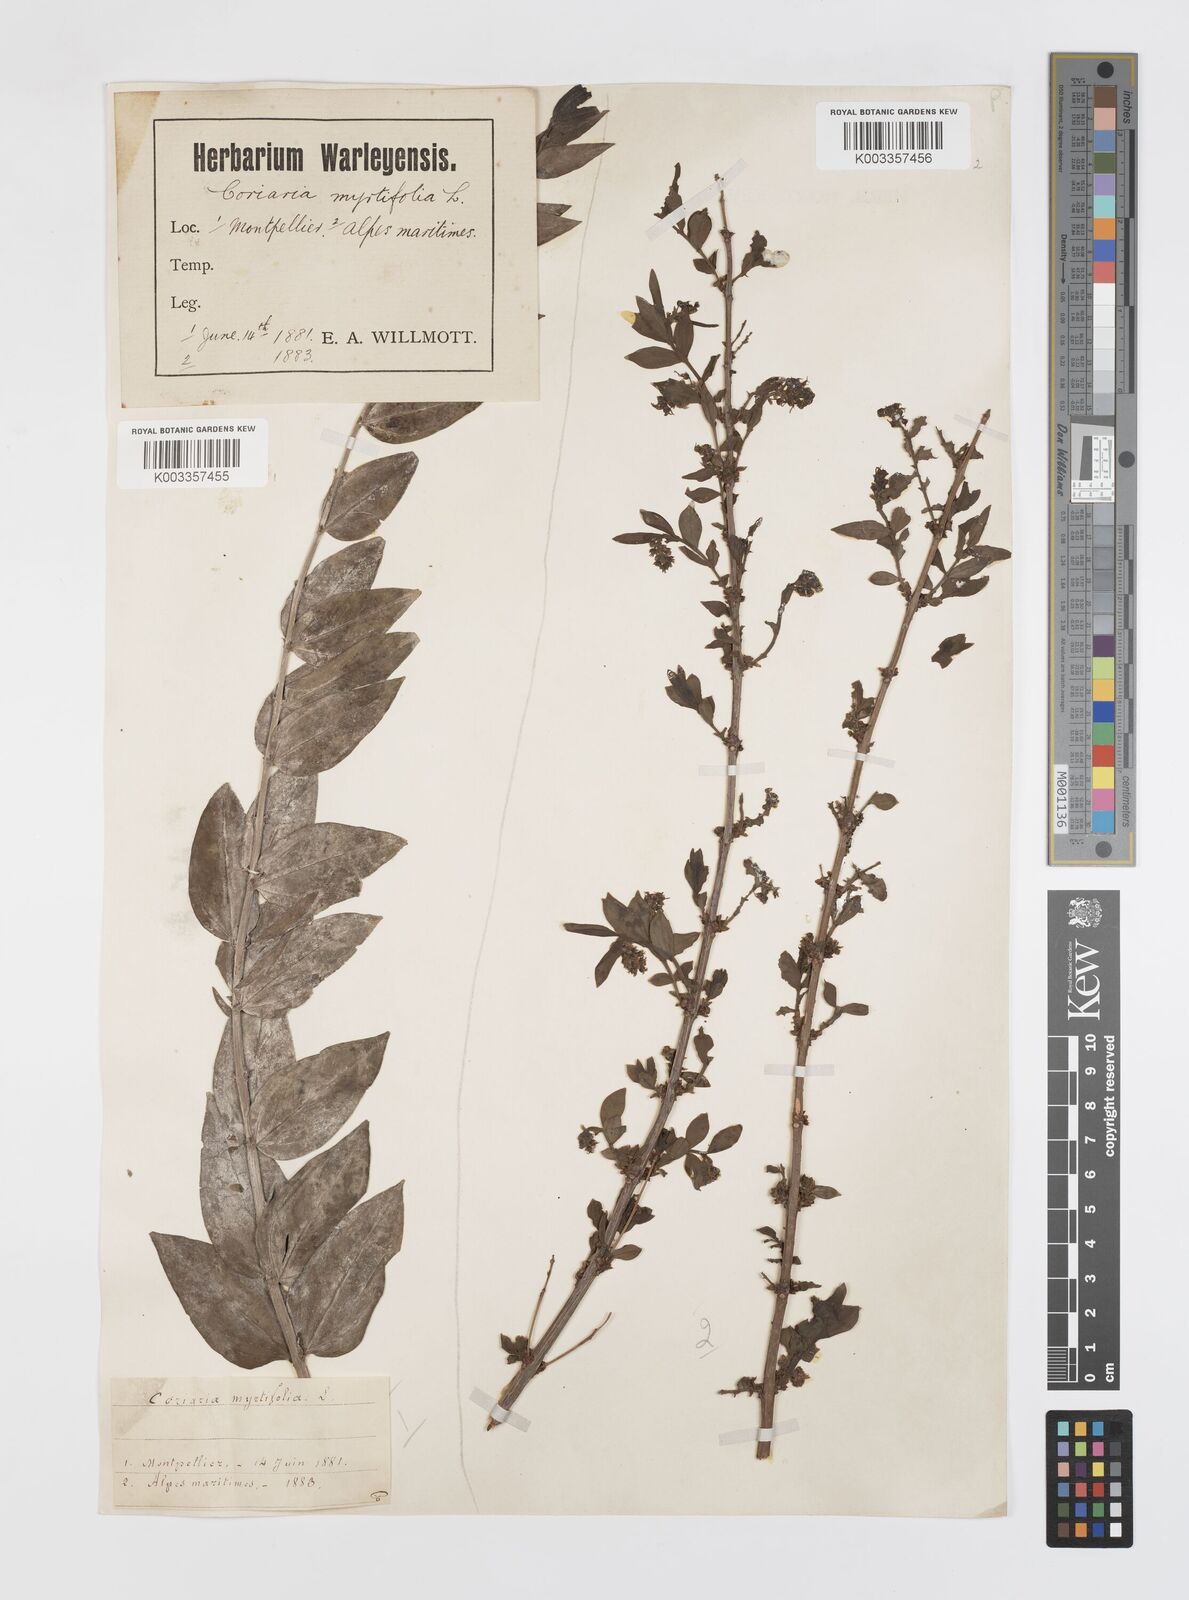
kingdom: Plantae
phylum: Tracheophyta
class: Magnoliopsida
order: Cucurbitales
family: Coriariaceae
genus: Coriaria
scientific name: Coriaria myrtifolia
